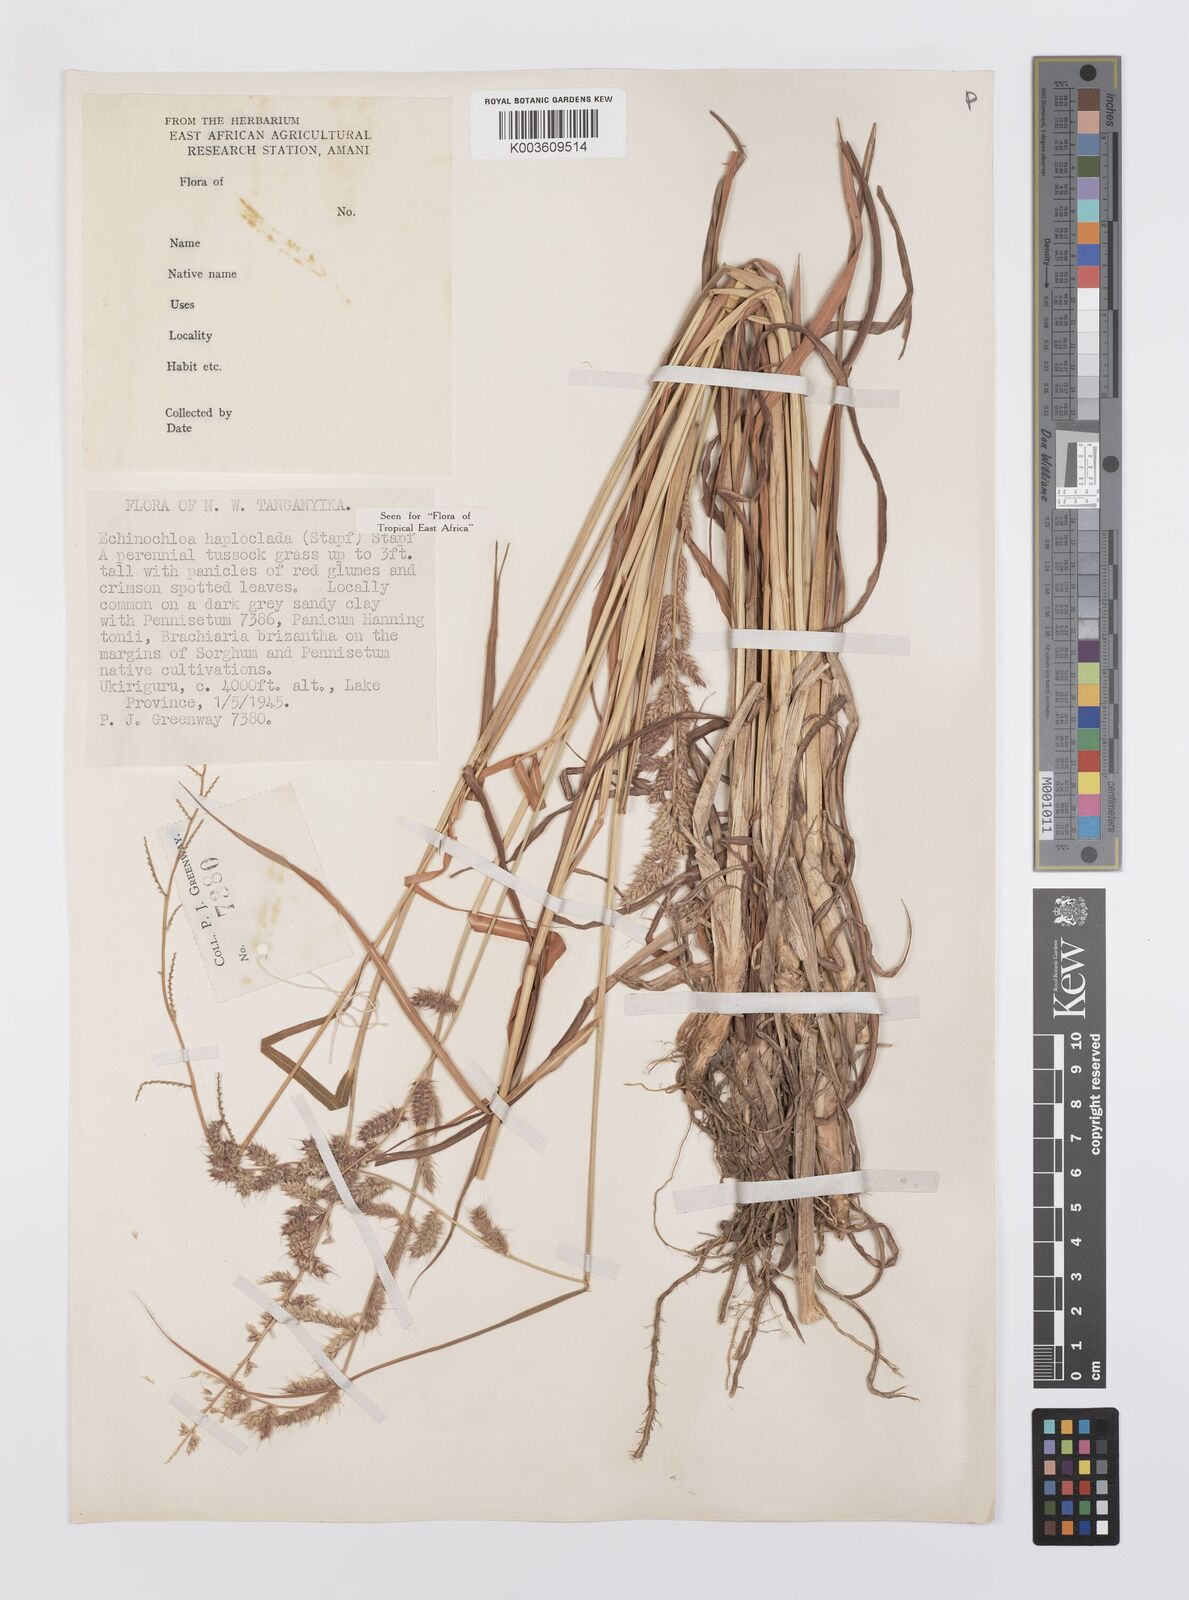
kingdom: Plantae
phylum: Tracheophyta
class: Liliopsida
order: Poales
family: Poaceae
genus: Echinochloa
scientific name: Echinochloa haploclada
